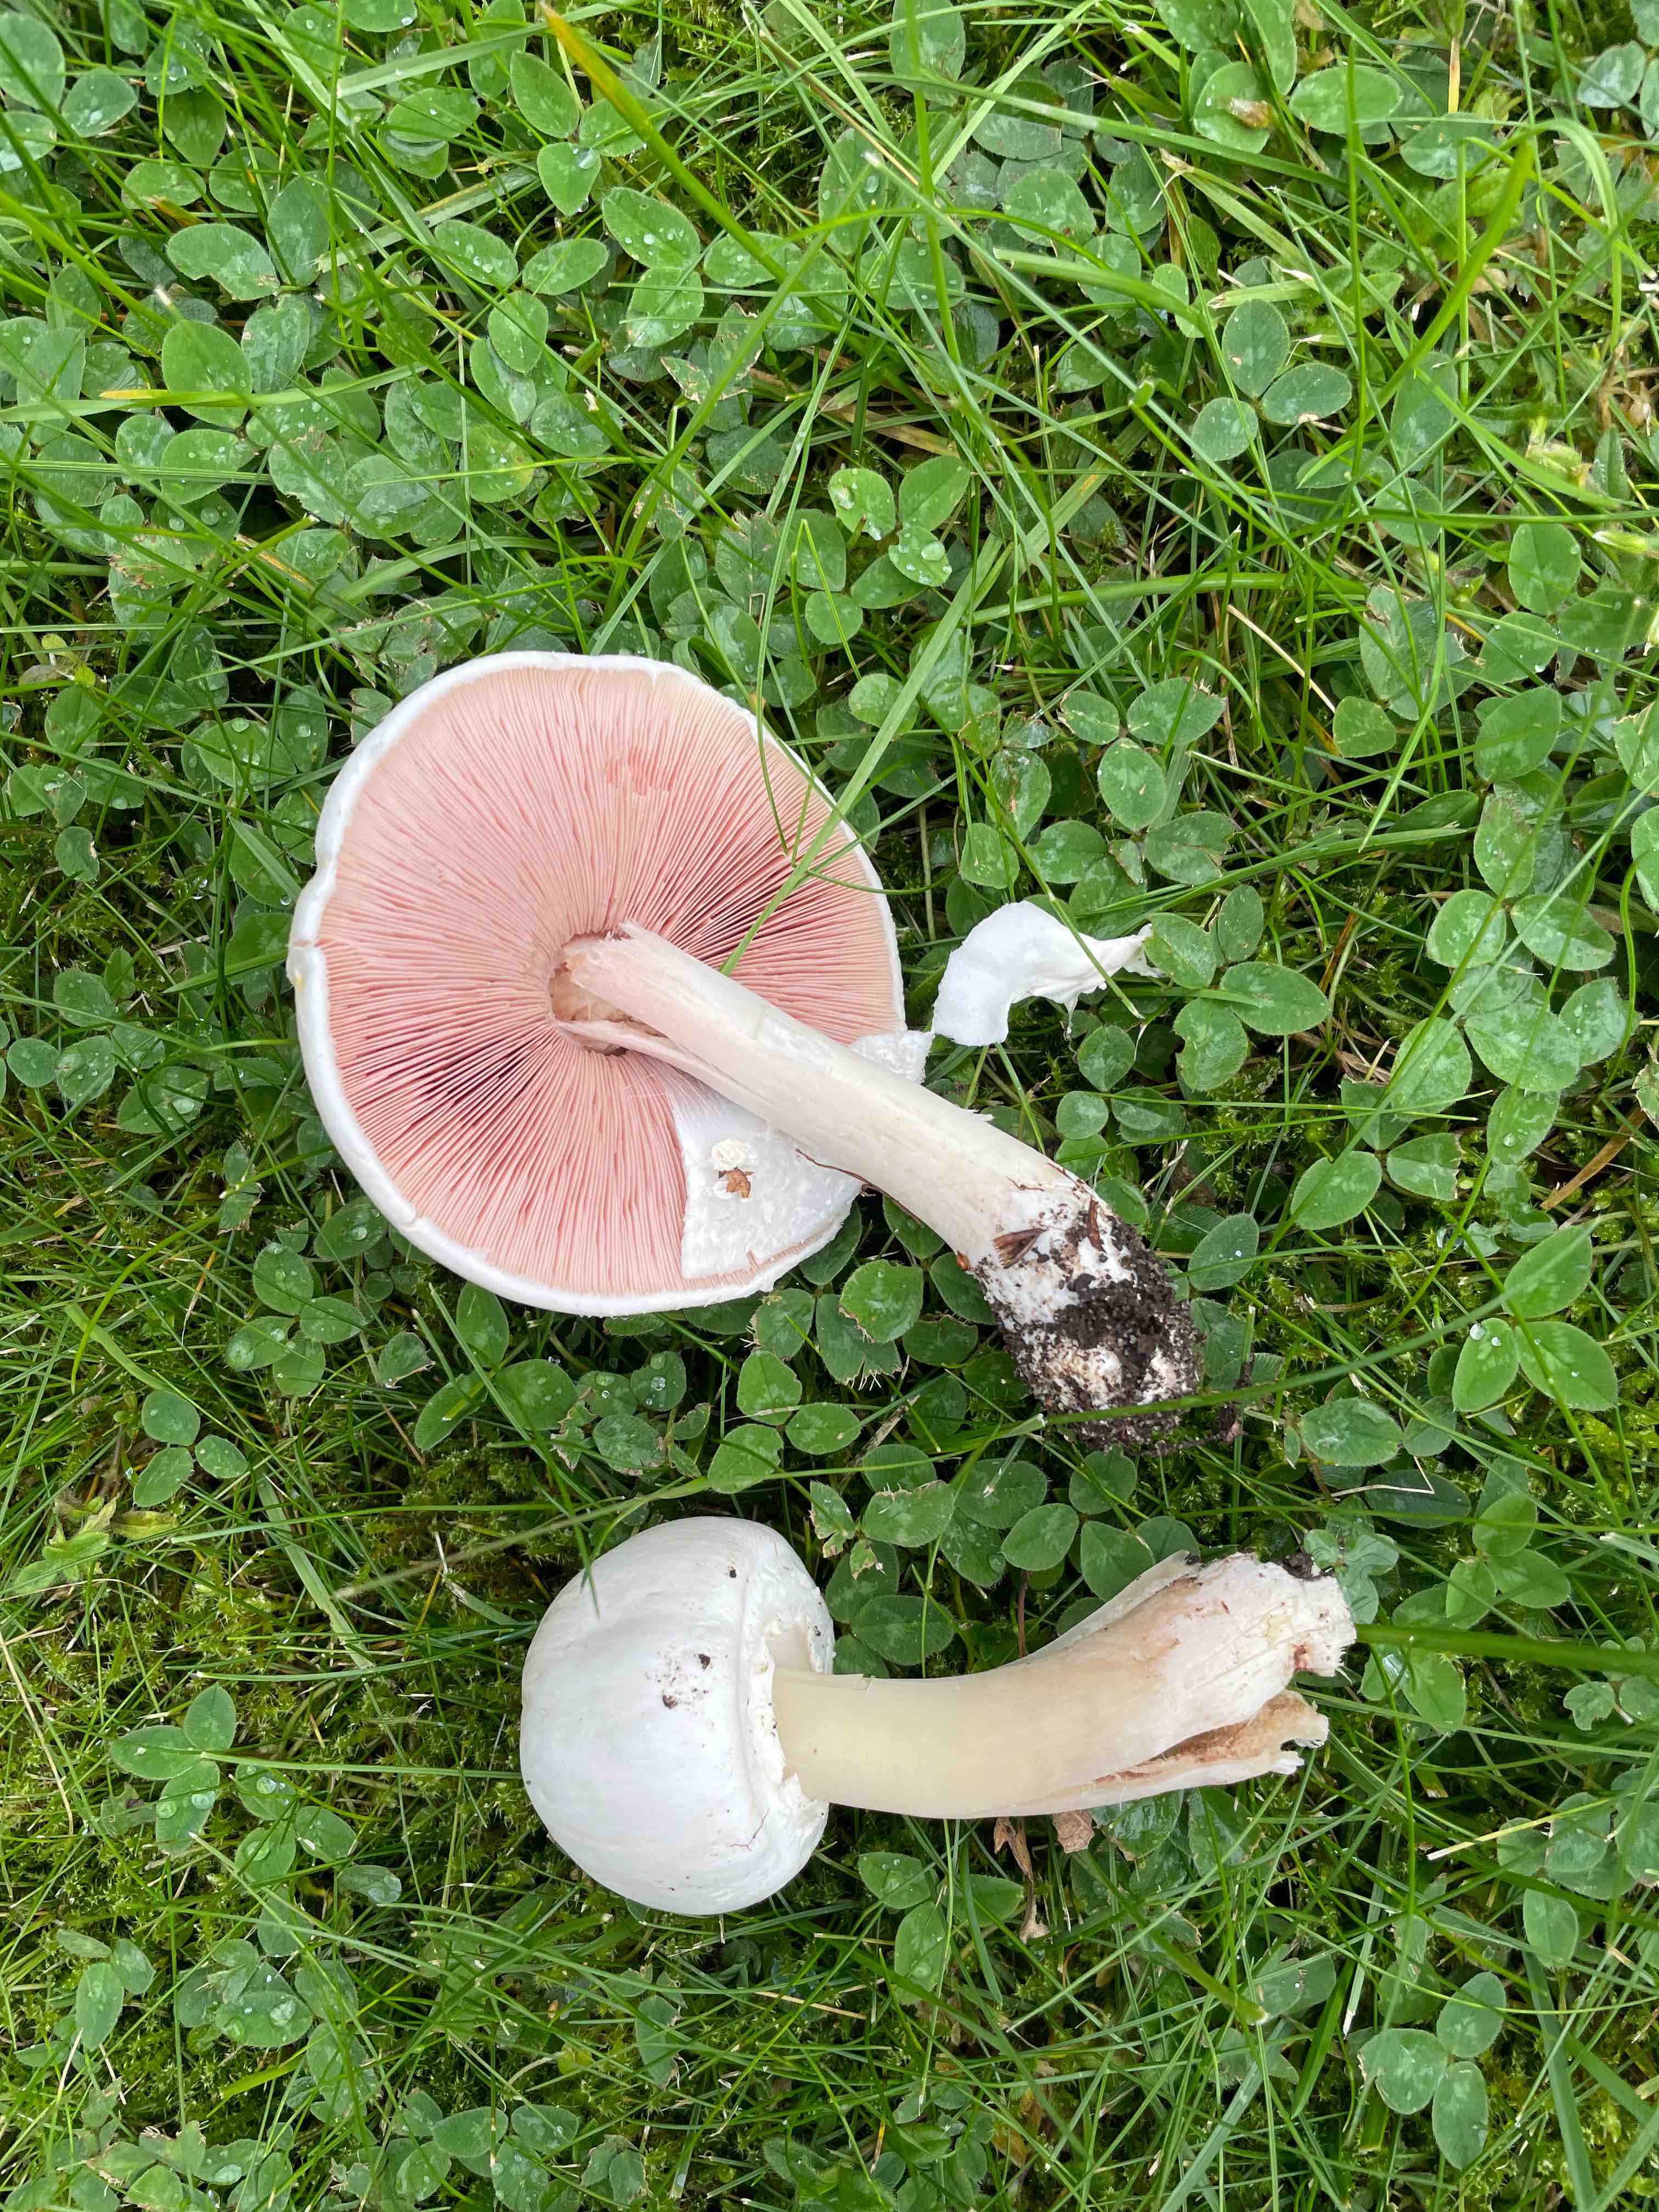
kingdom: Fungi
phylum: Basidiomycota
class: Agaricomycetes
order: Agaricales
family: Agaricaceae
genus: Agaricus
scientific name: Agaricus
